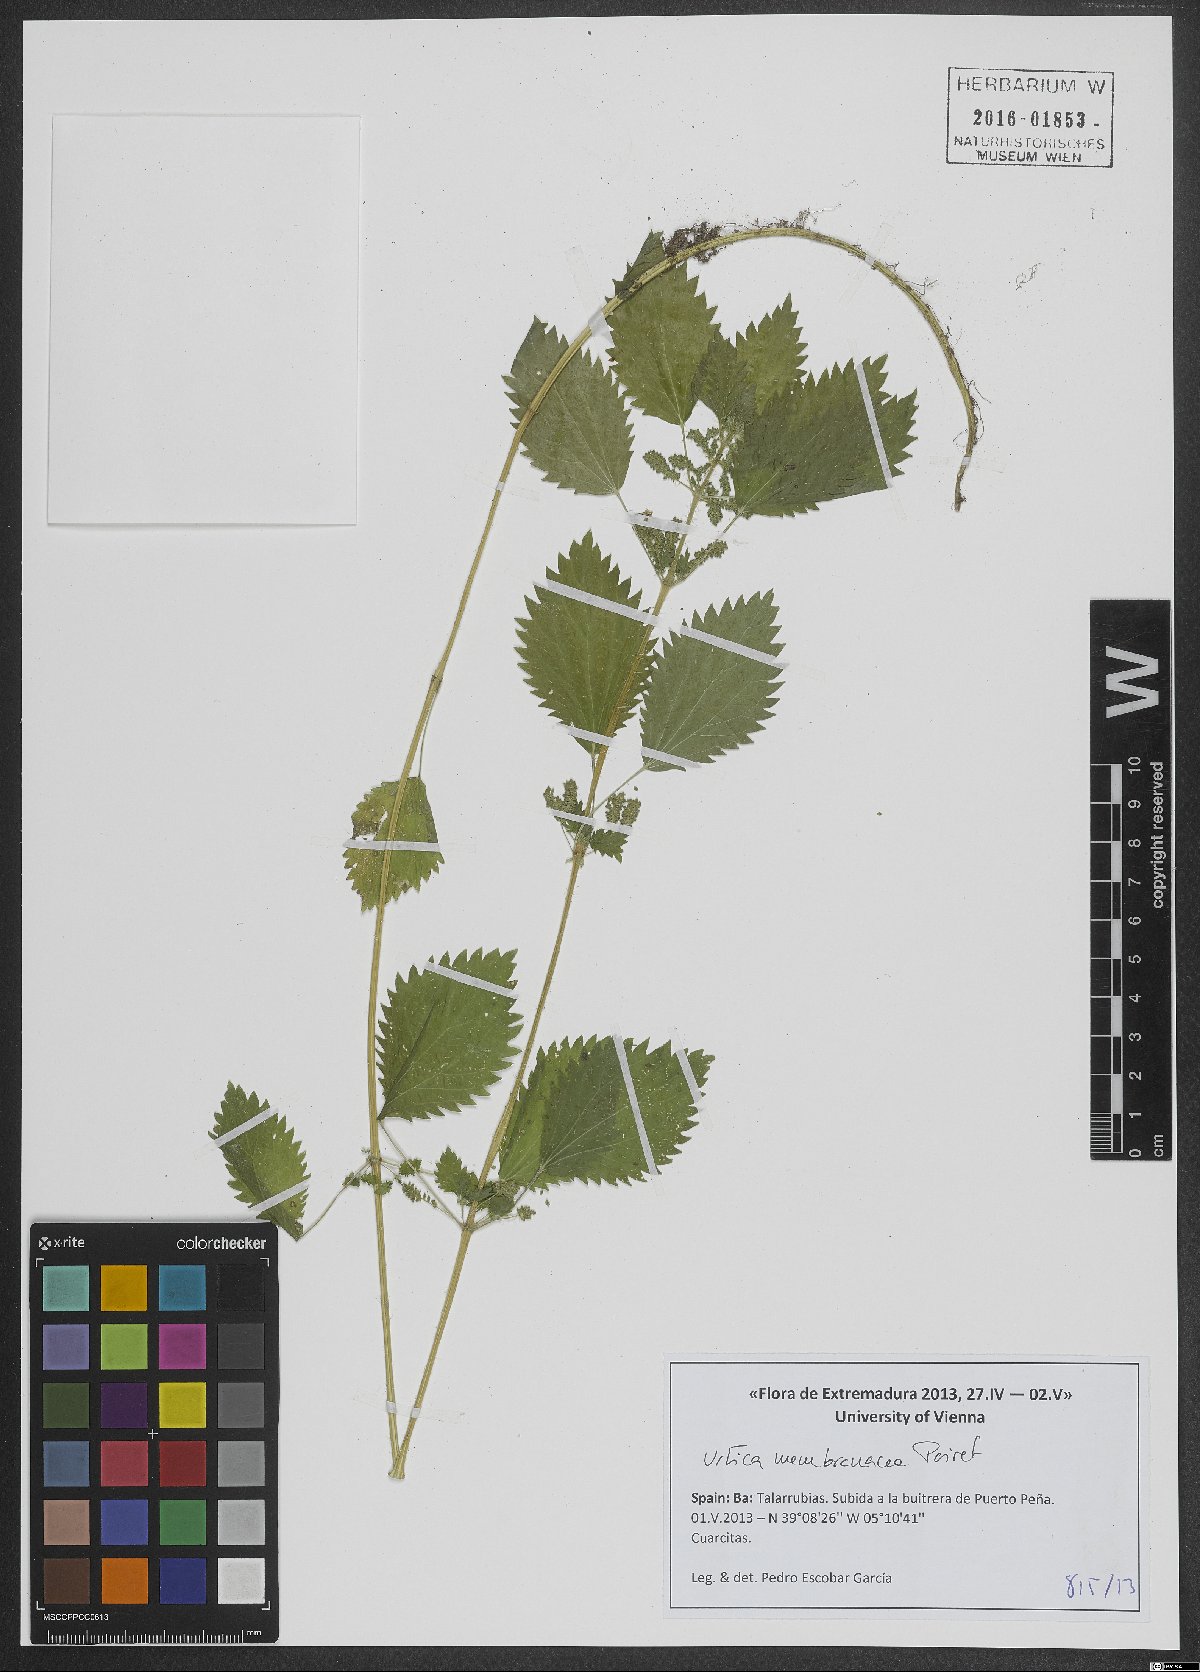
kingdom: Plantae
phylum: Tracheophyta
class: Magnoliopsida
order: Rosales
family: Urticaceae
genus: Urtica
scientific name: Urtica membranacea
